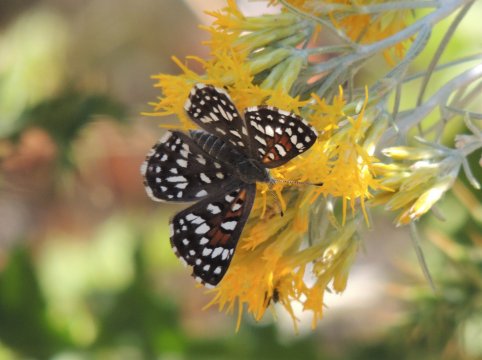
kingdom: Animalia
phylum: Arthropoda
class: Insecta
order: Lepidoptera
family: Riodinidae
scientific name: Riodinidae
